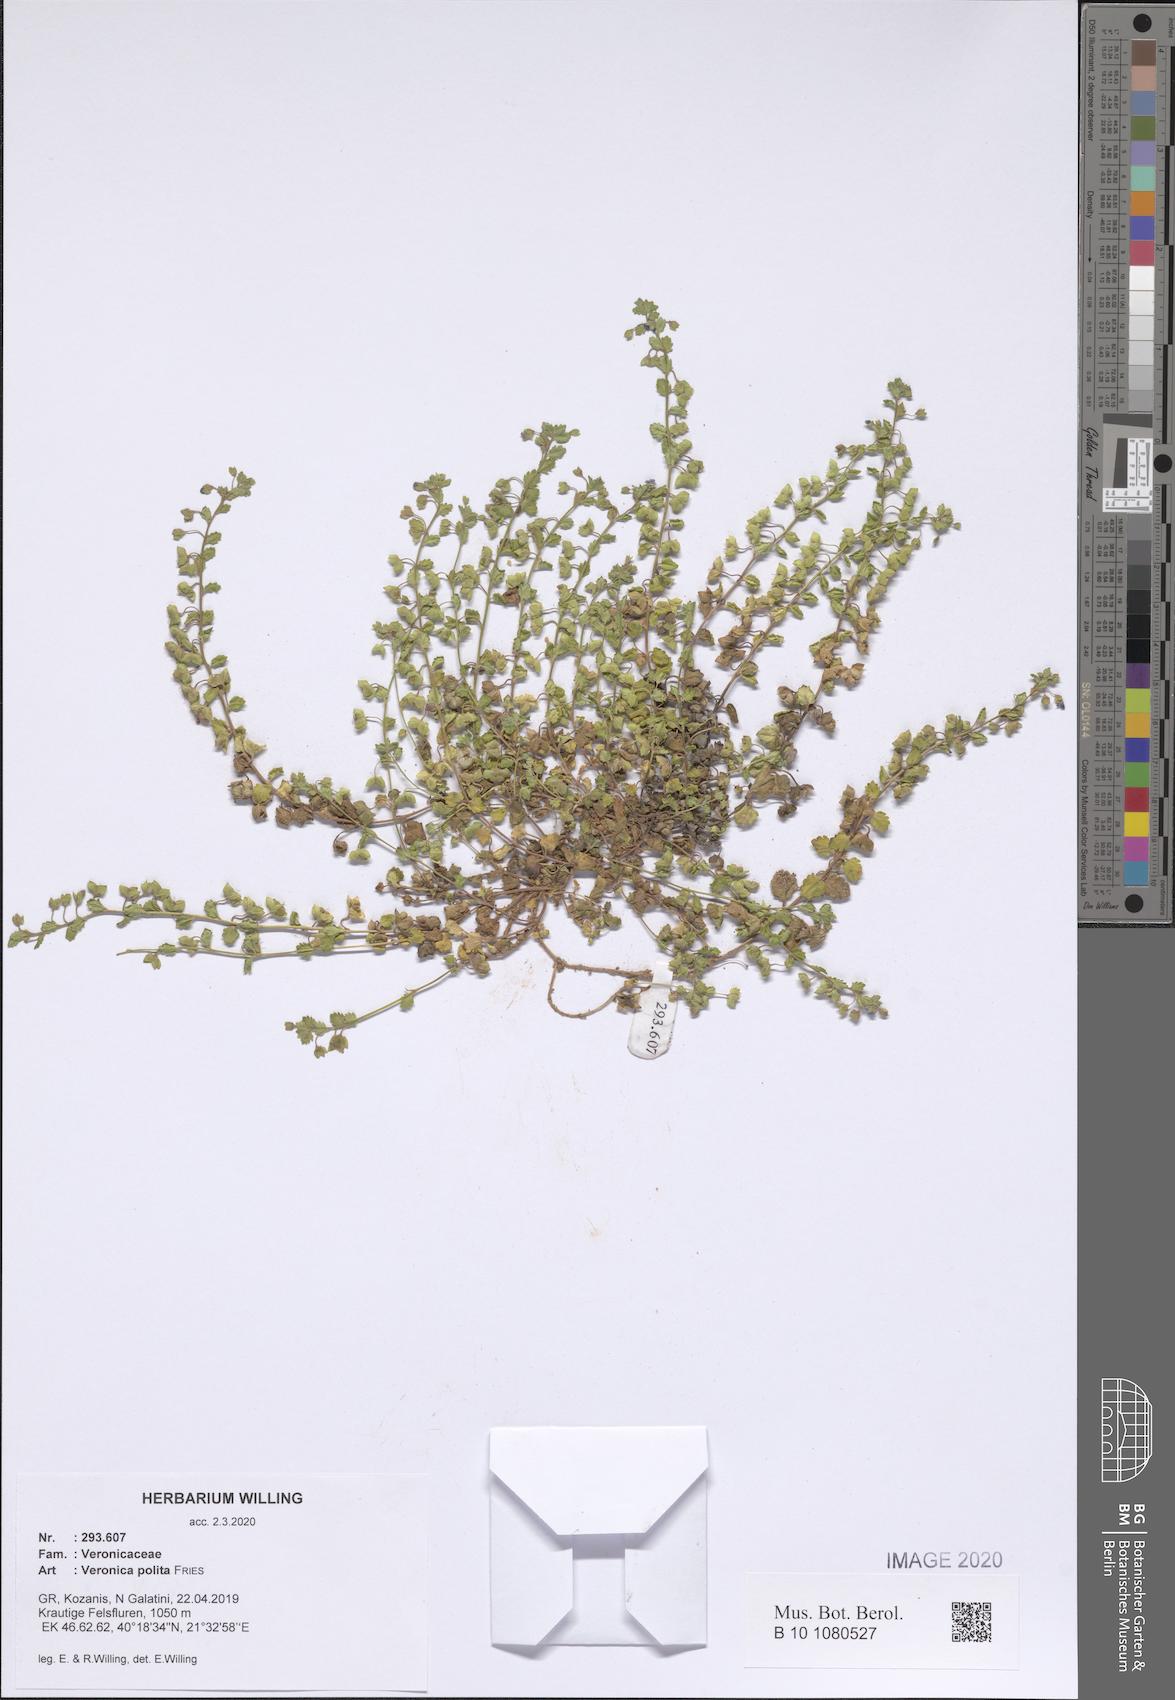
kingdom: Plantae
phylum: Tracheophyta
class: Magnoliopsida
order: Lamiales
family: Plantaginaceae
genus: Veronica
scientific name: Veronica polita
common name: Grey field-speedwell
